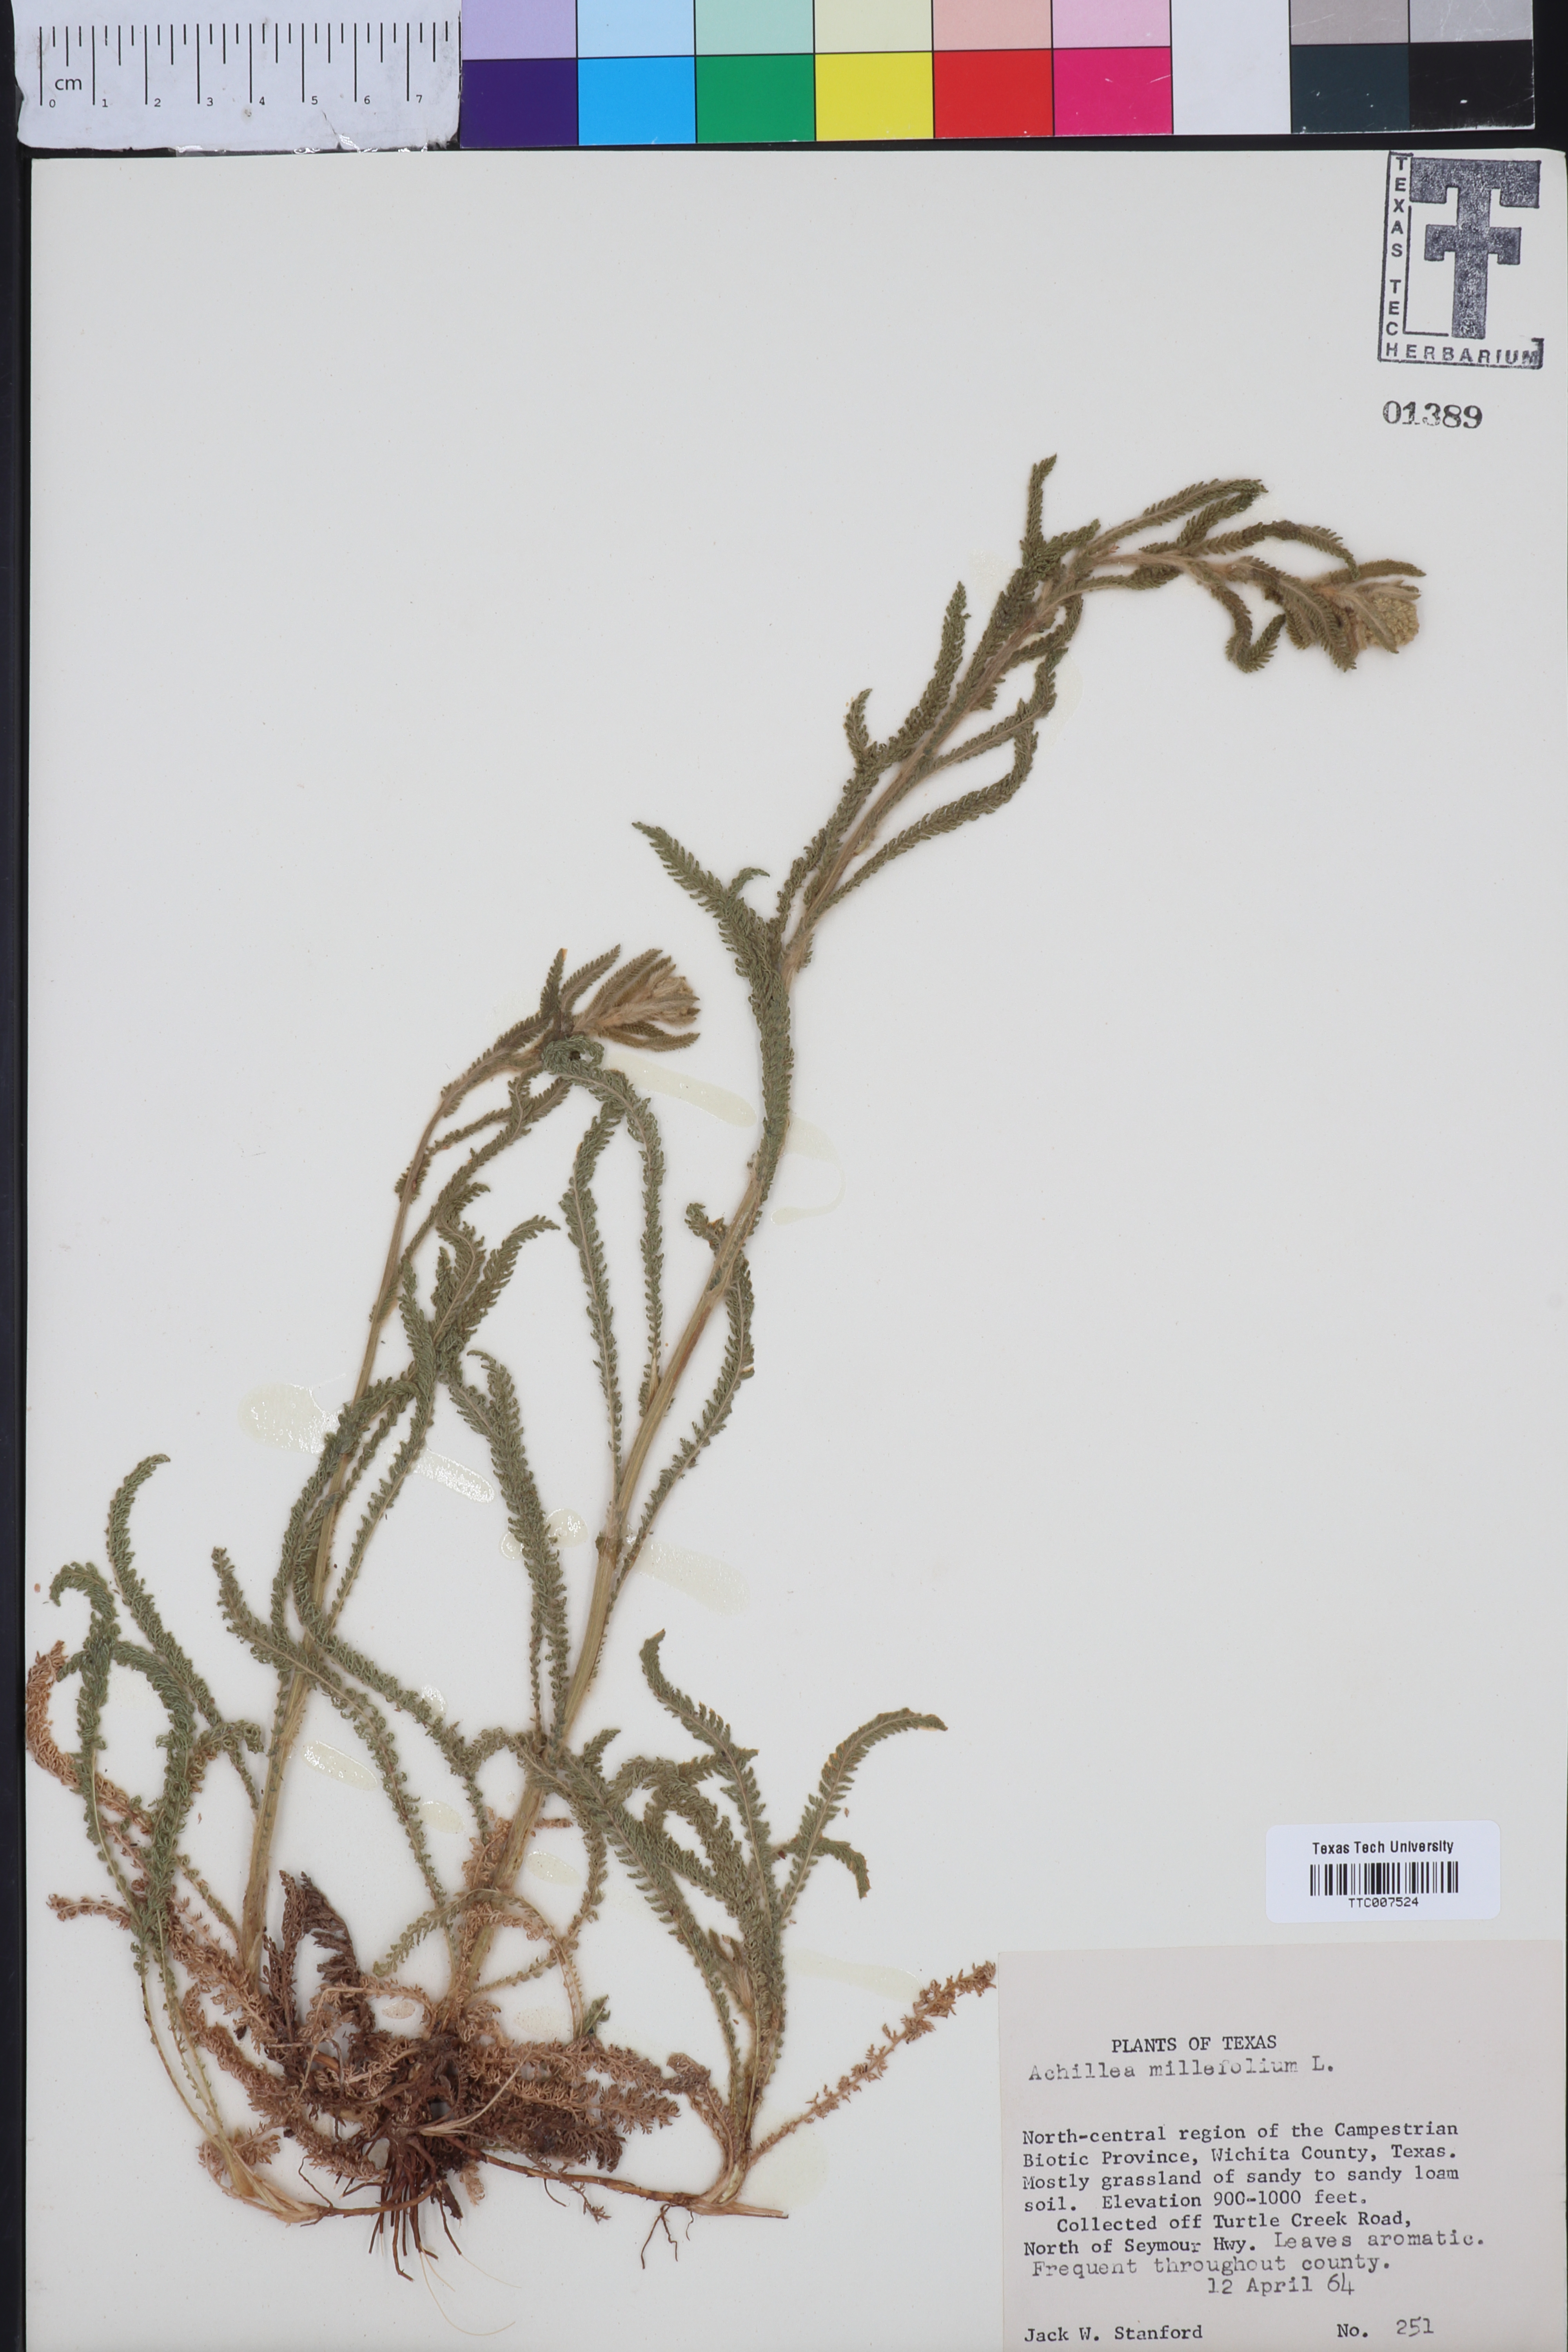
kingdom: Plantae
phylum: Tracheophyta
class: Magnoliopsida
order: Asterales
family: Asteraceae
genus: Achillea
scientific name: Achillea millefolium
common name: Yarrow
